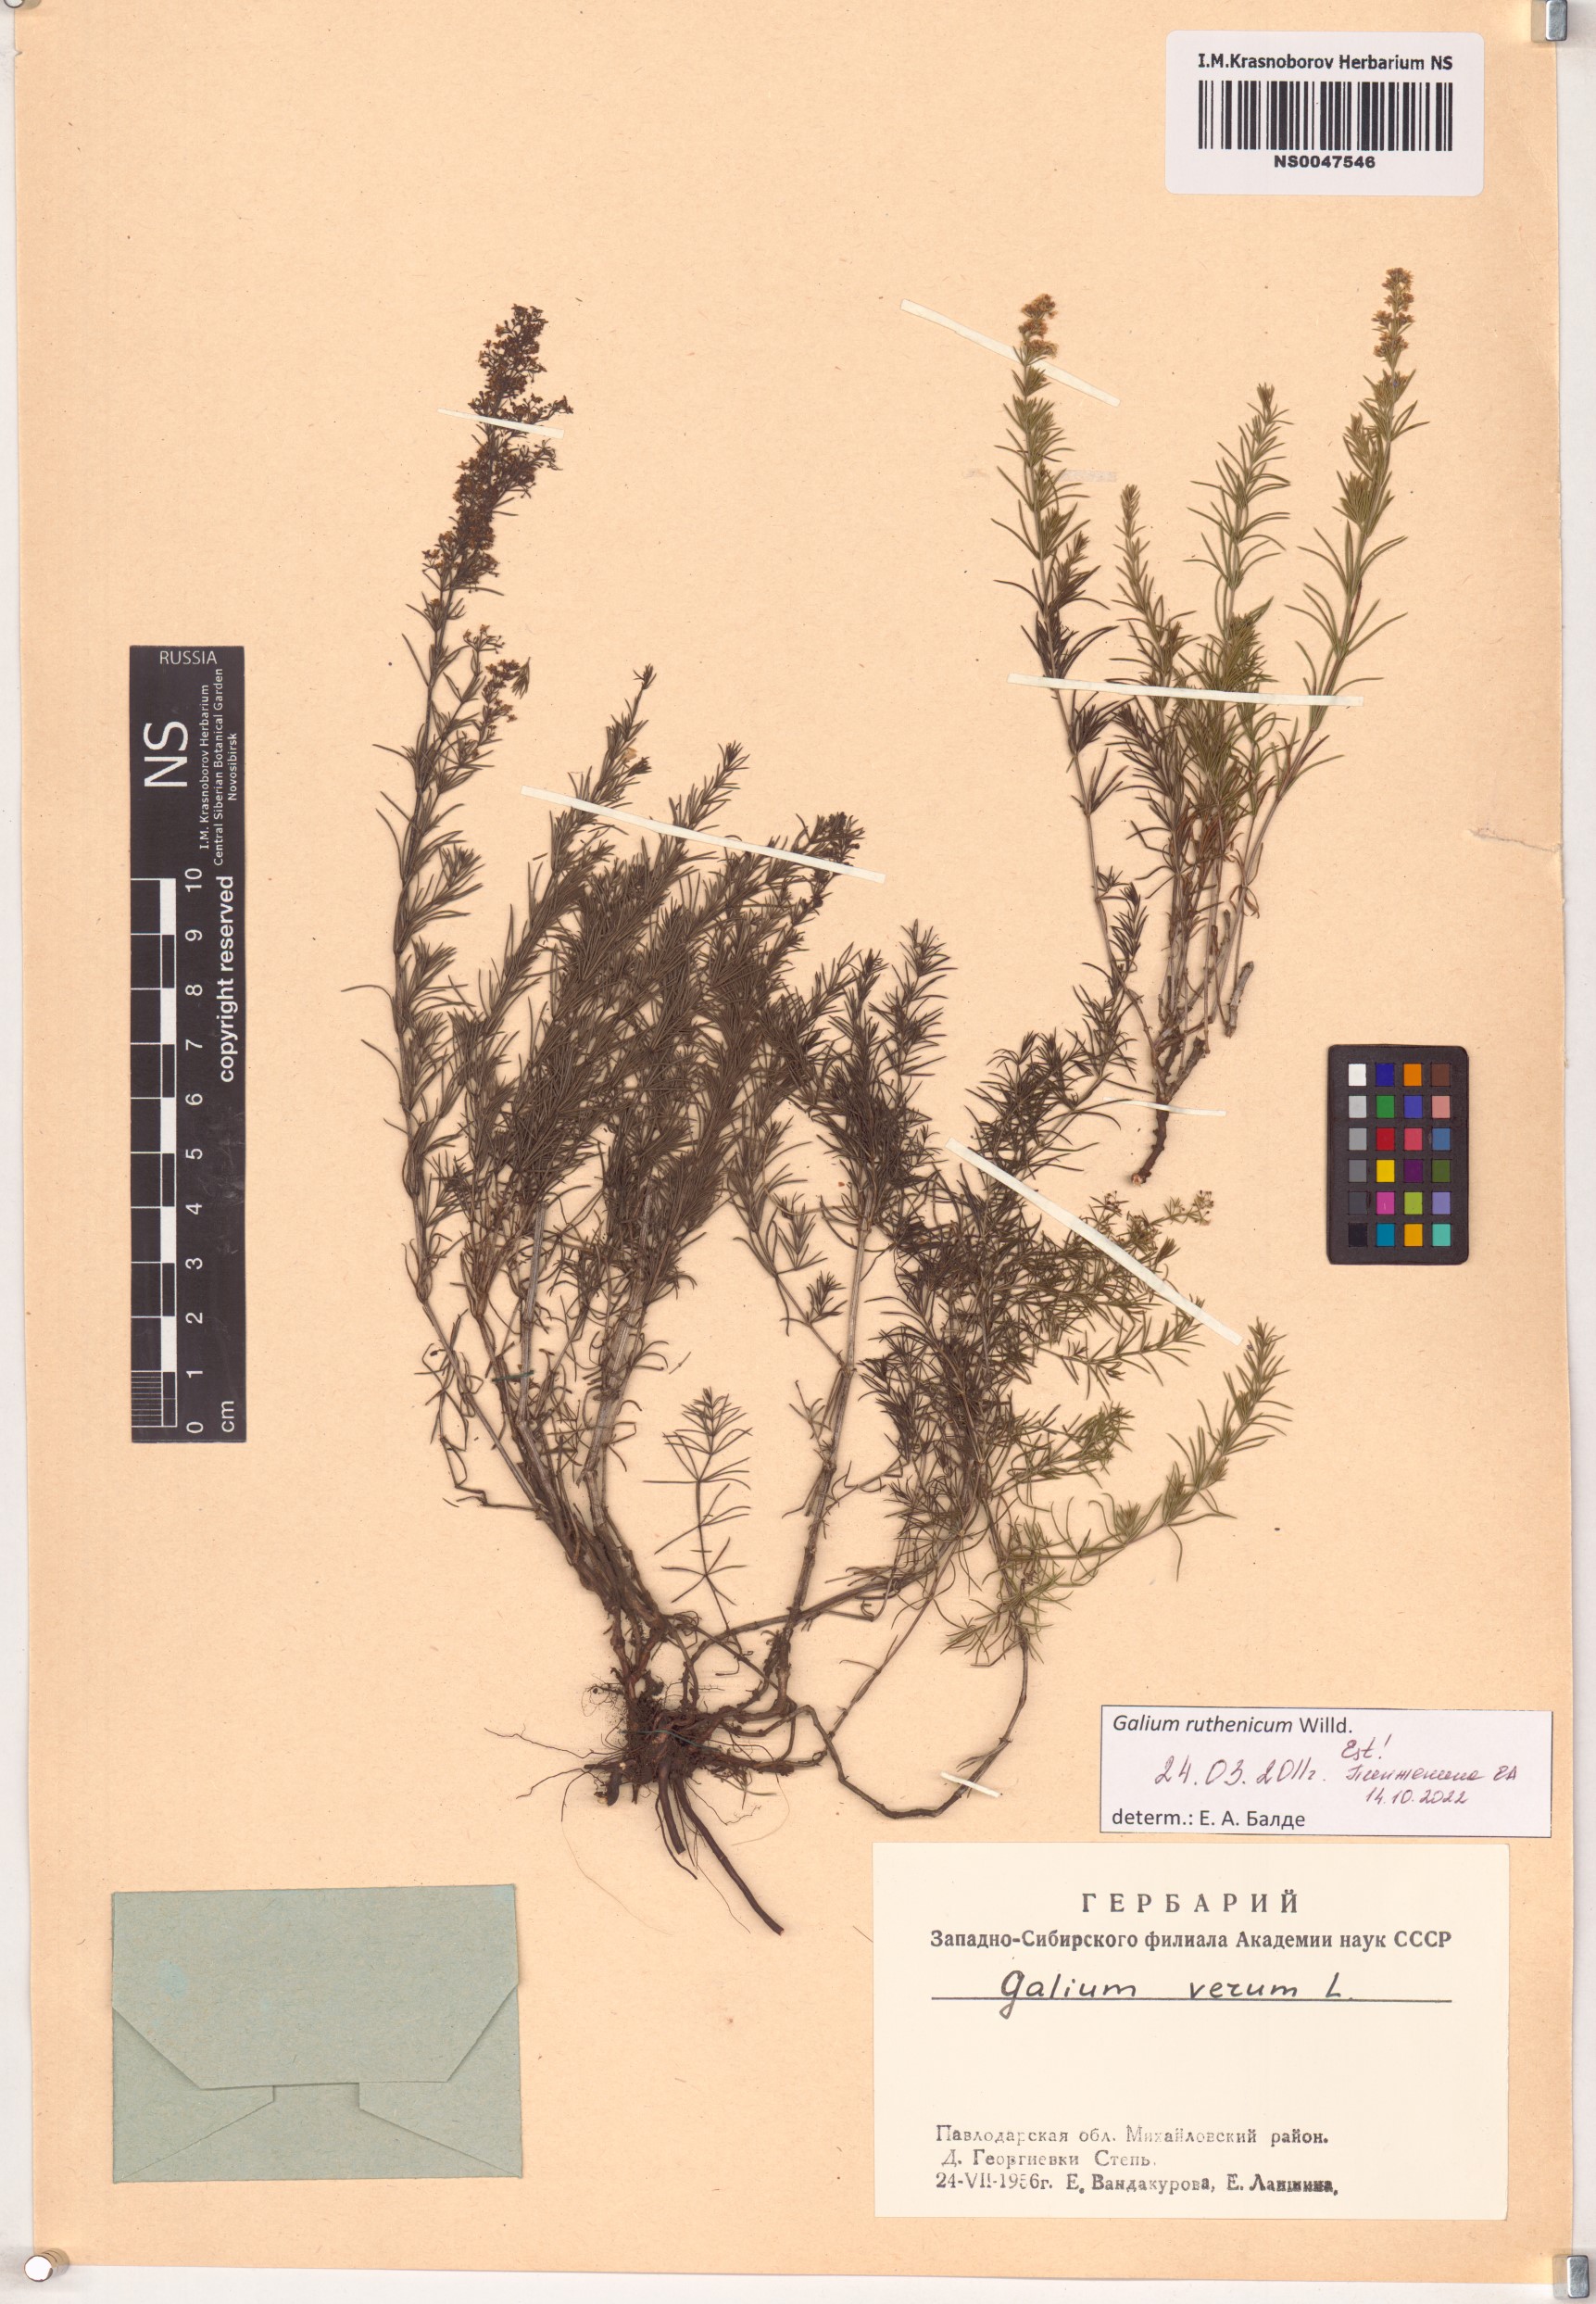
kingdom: Plantae
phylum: Tracheophyta
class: Magnoliopsida
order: Gentianales
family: Rubiaceae
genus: Galium
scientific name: Galium verum
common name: Lady's bedstraw
